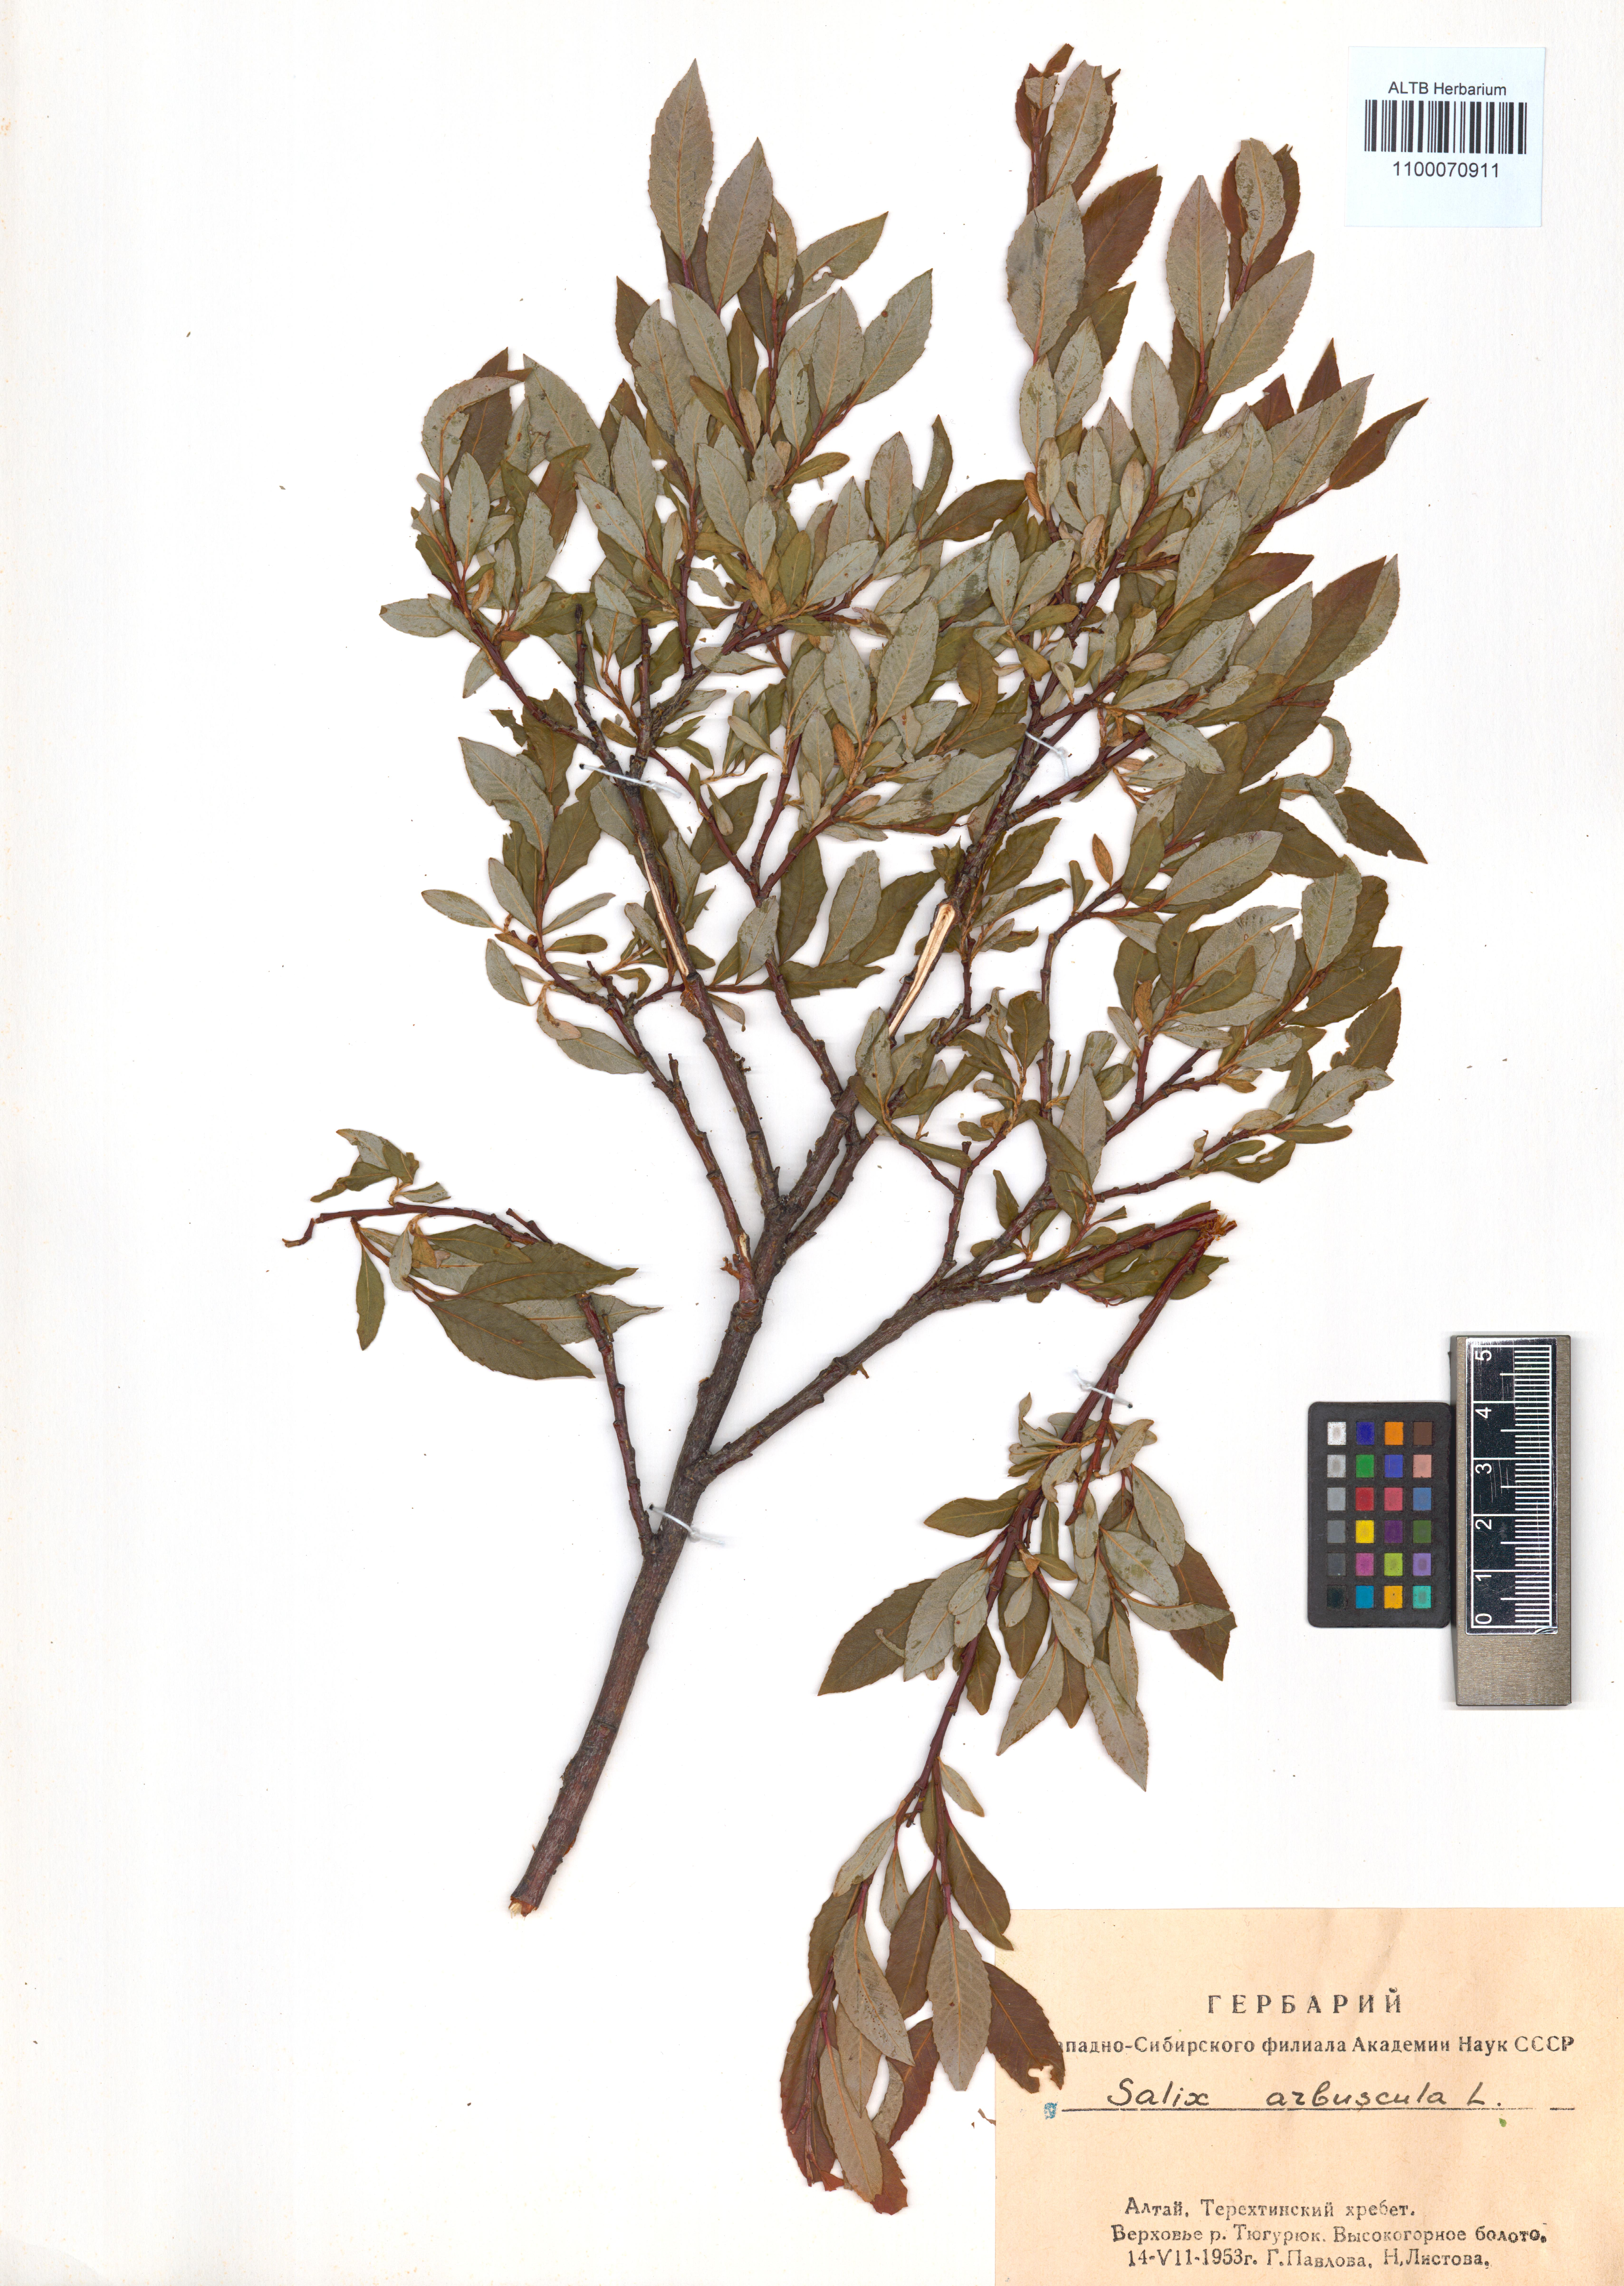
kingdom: Plantae
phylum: Tracheophyta
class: Magnoliopsida
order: Malpighiales
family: Salicaceae
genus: Salix
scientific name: Salix arbuscula
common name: Mountain willow
